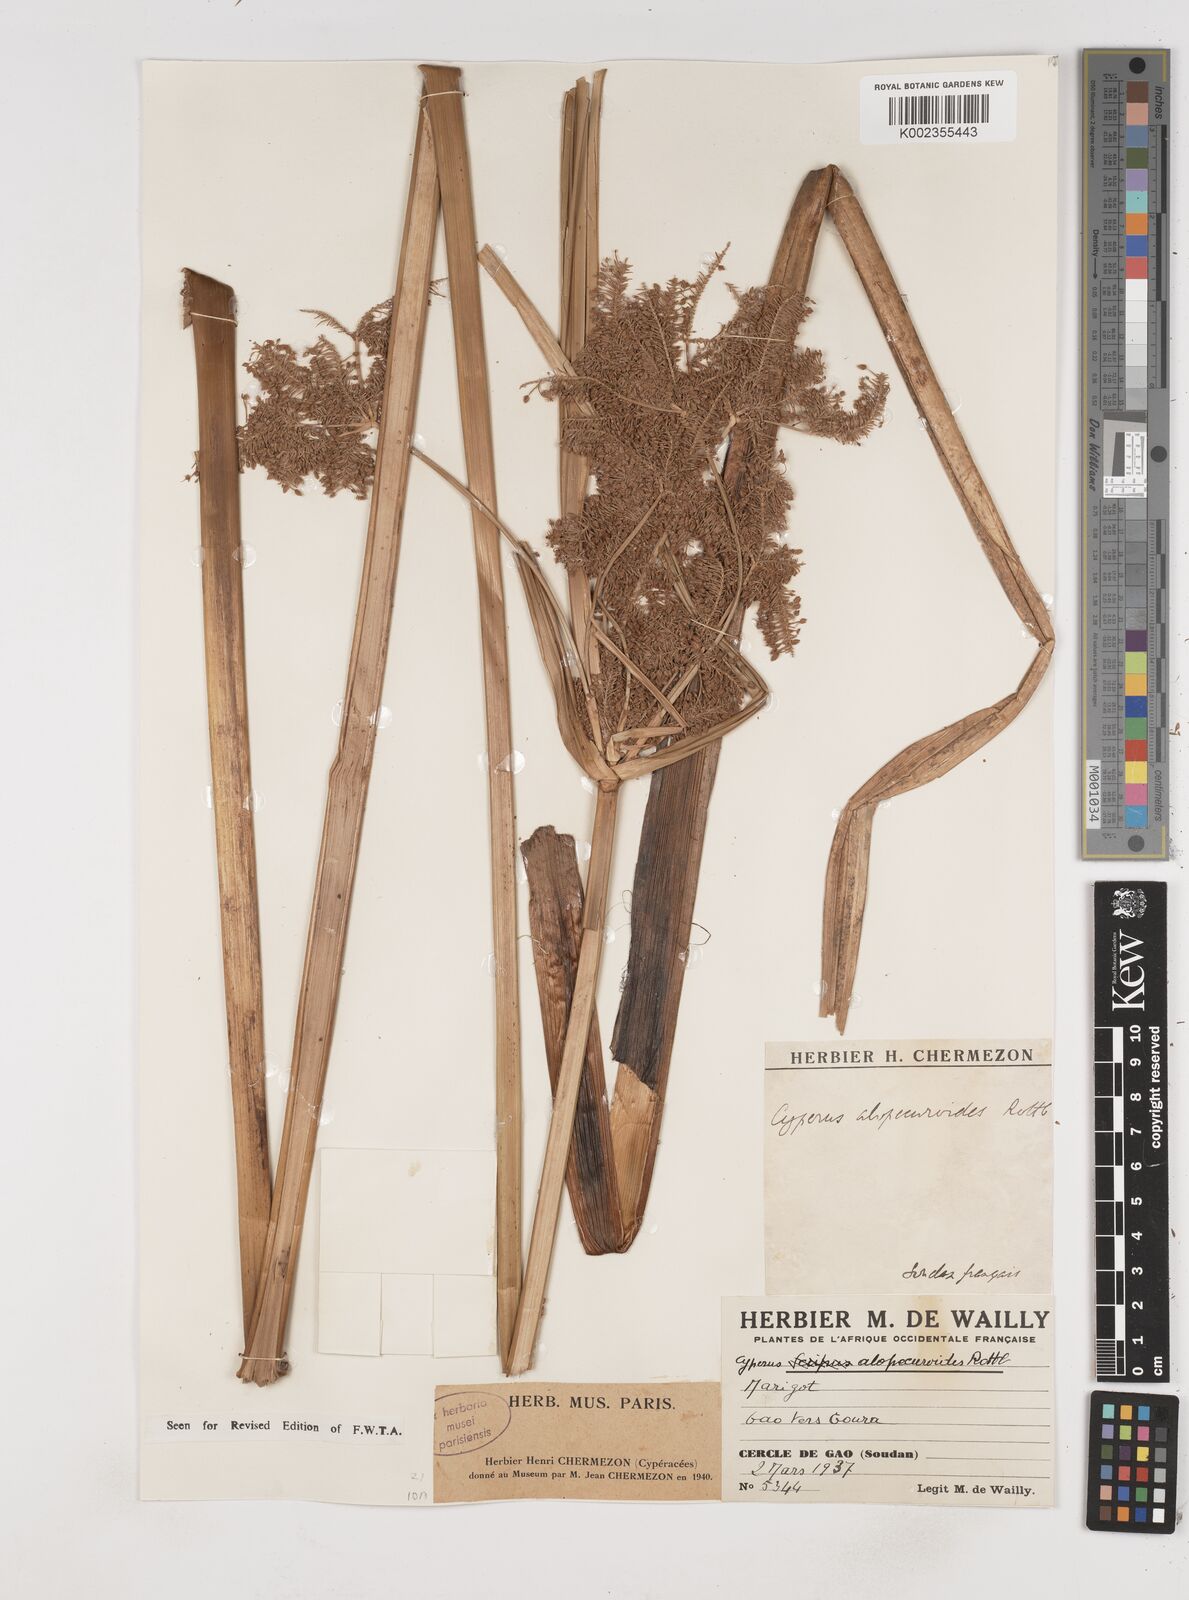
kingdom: Plantae
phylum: Tracheophyta
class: Liliopsida
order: Poales
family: Cyperaceae
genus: Cyperus
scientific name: Cyperus alopecuroides
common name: Foxtail flatsedge
